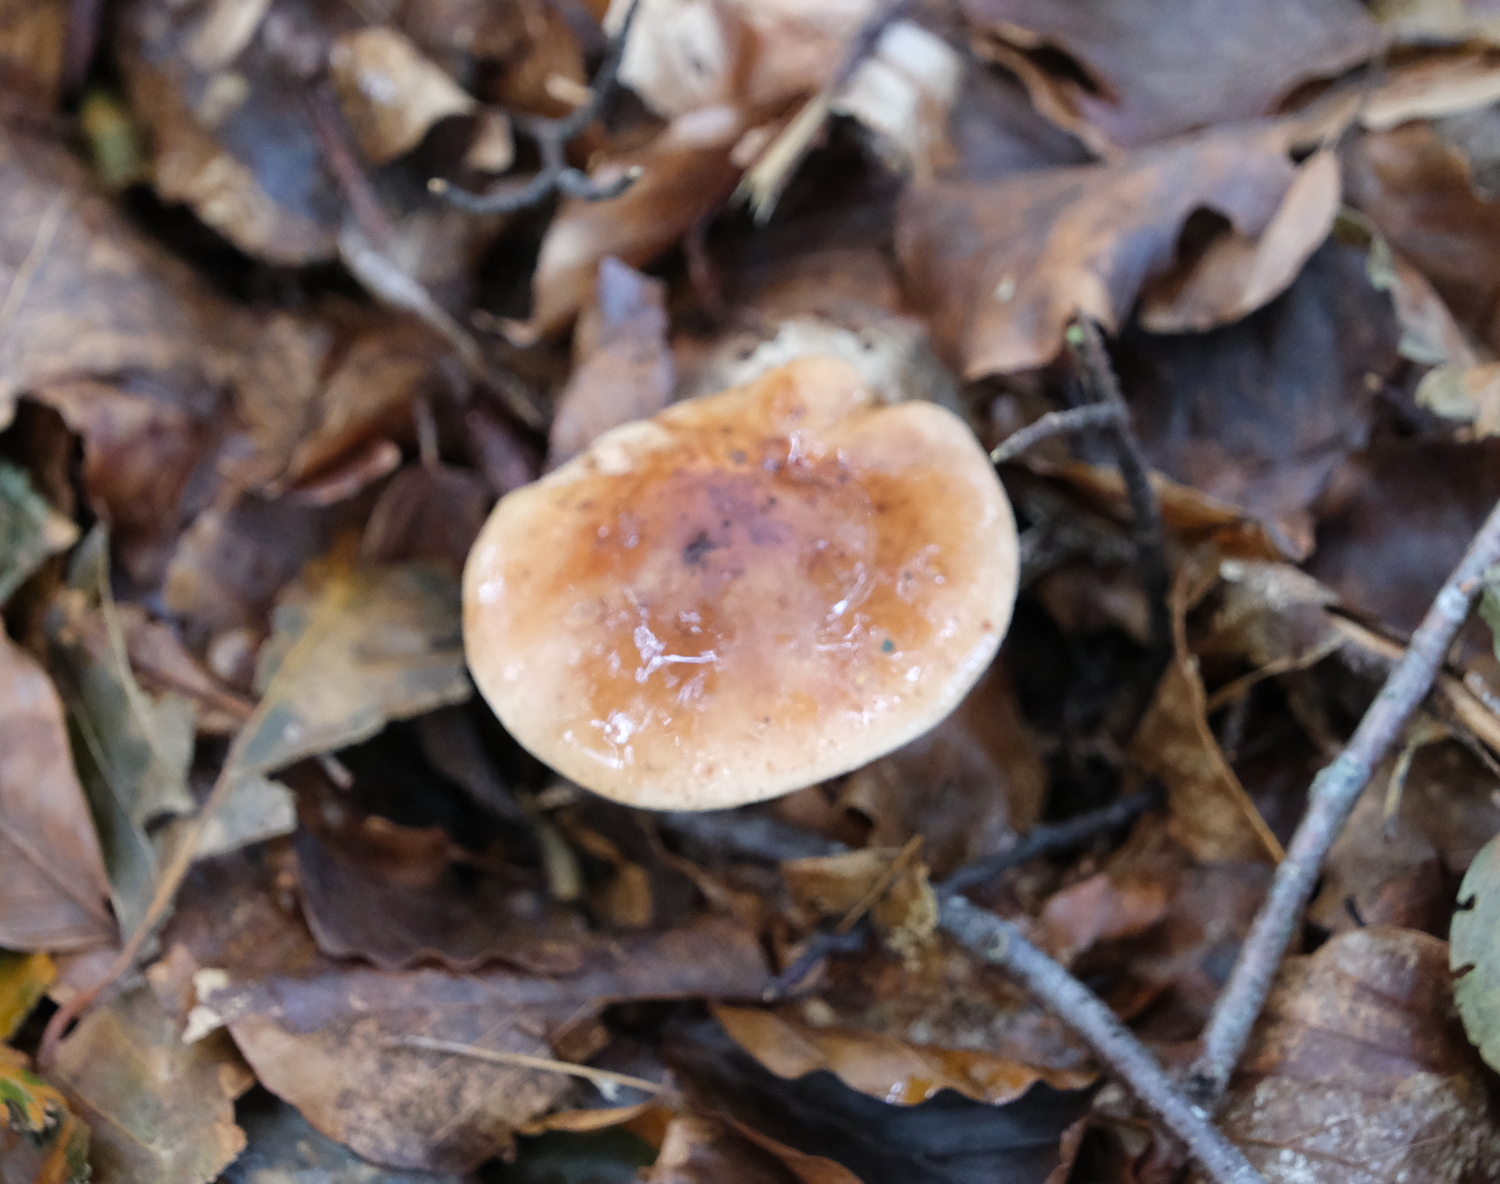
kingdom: Fungi
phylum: Basidiomycota
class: Agaricomycetes
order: Agaricales
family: Tricholomataceae
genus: Tricholoma
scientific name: Tricholoma ustale
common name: sveden ridderhat
